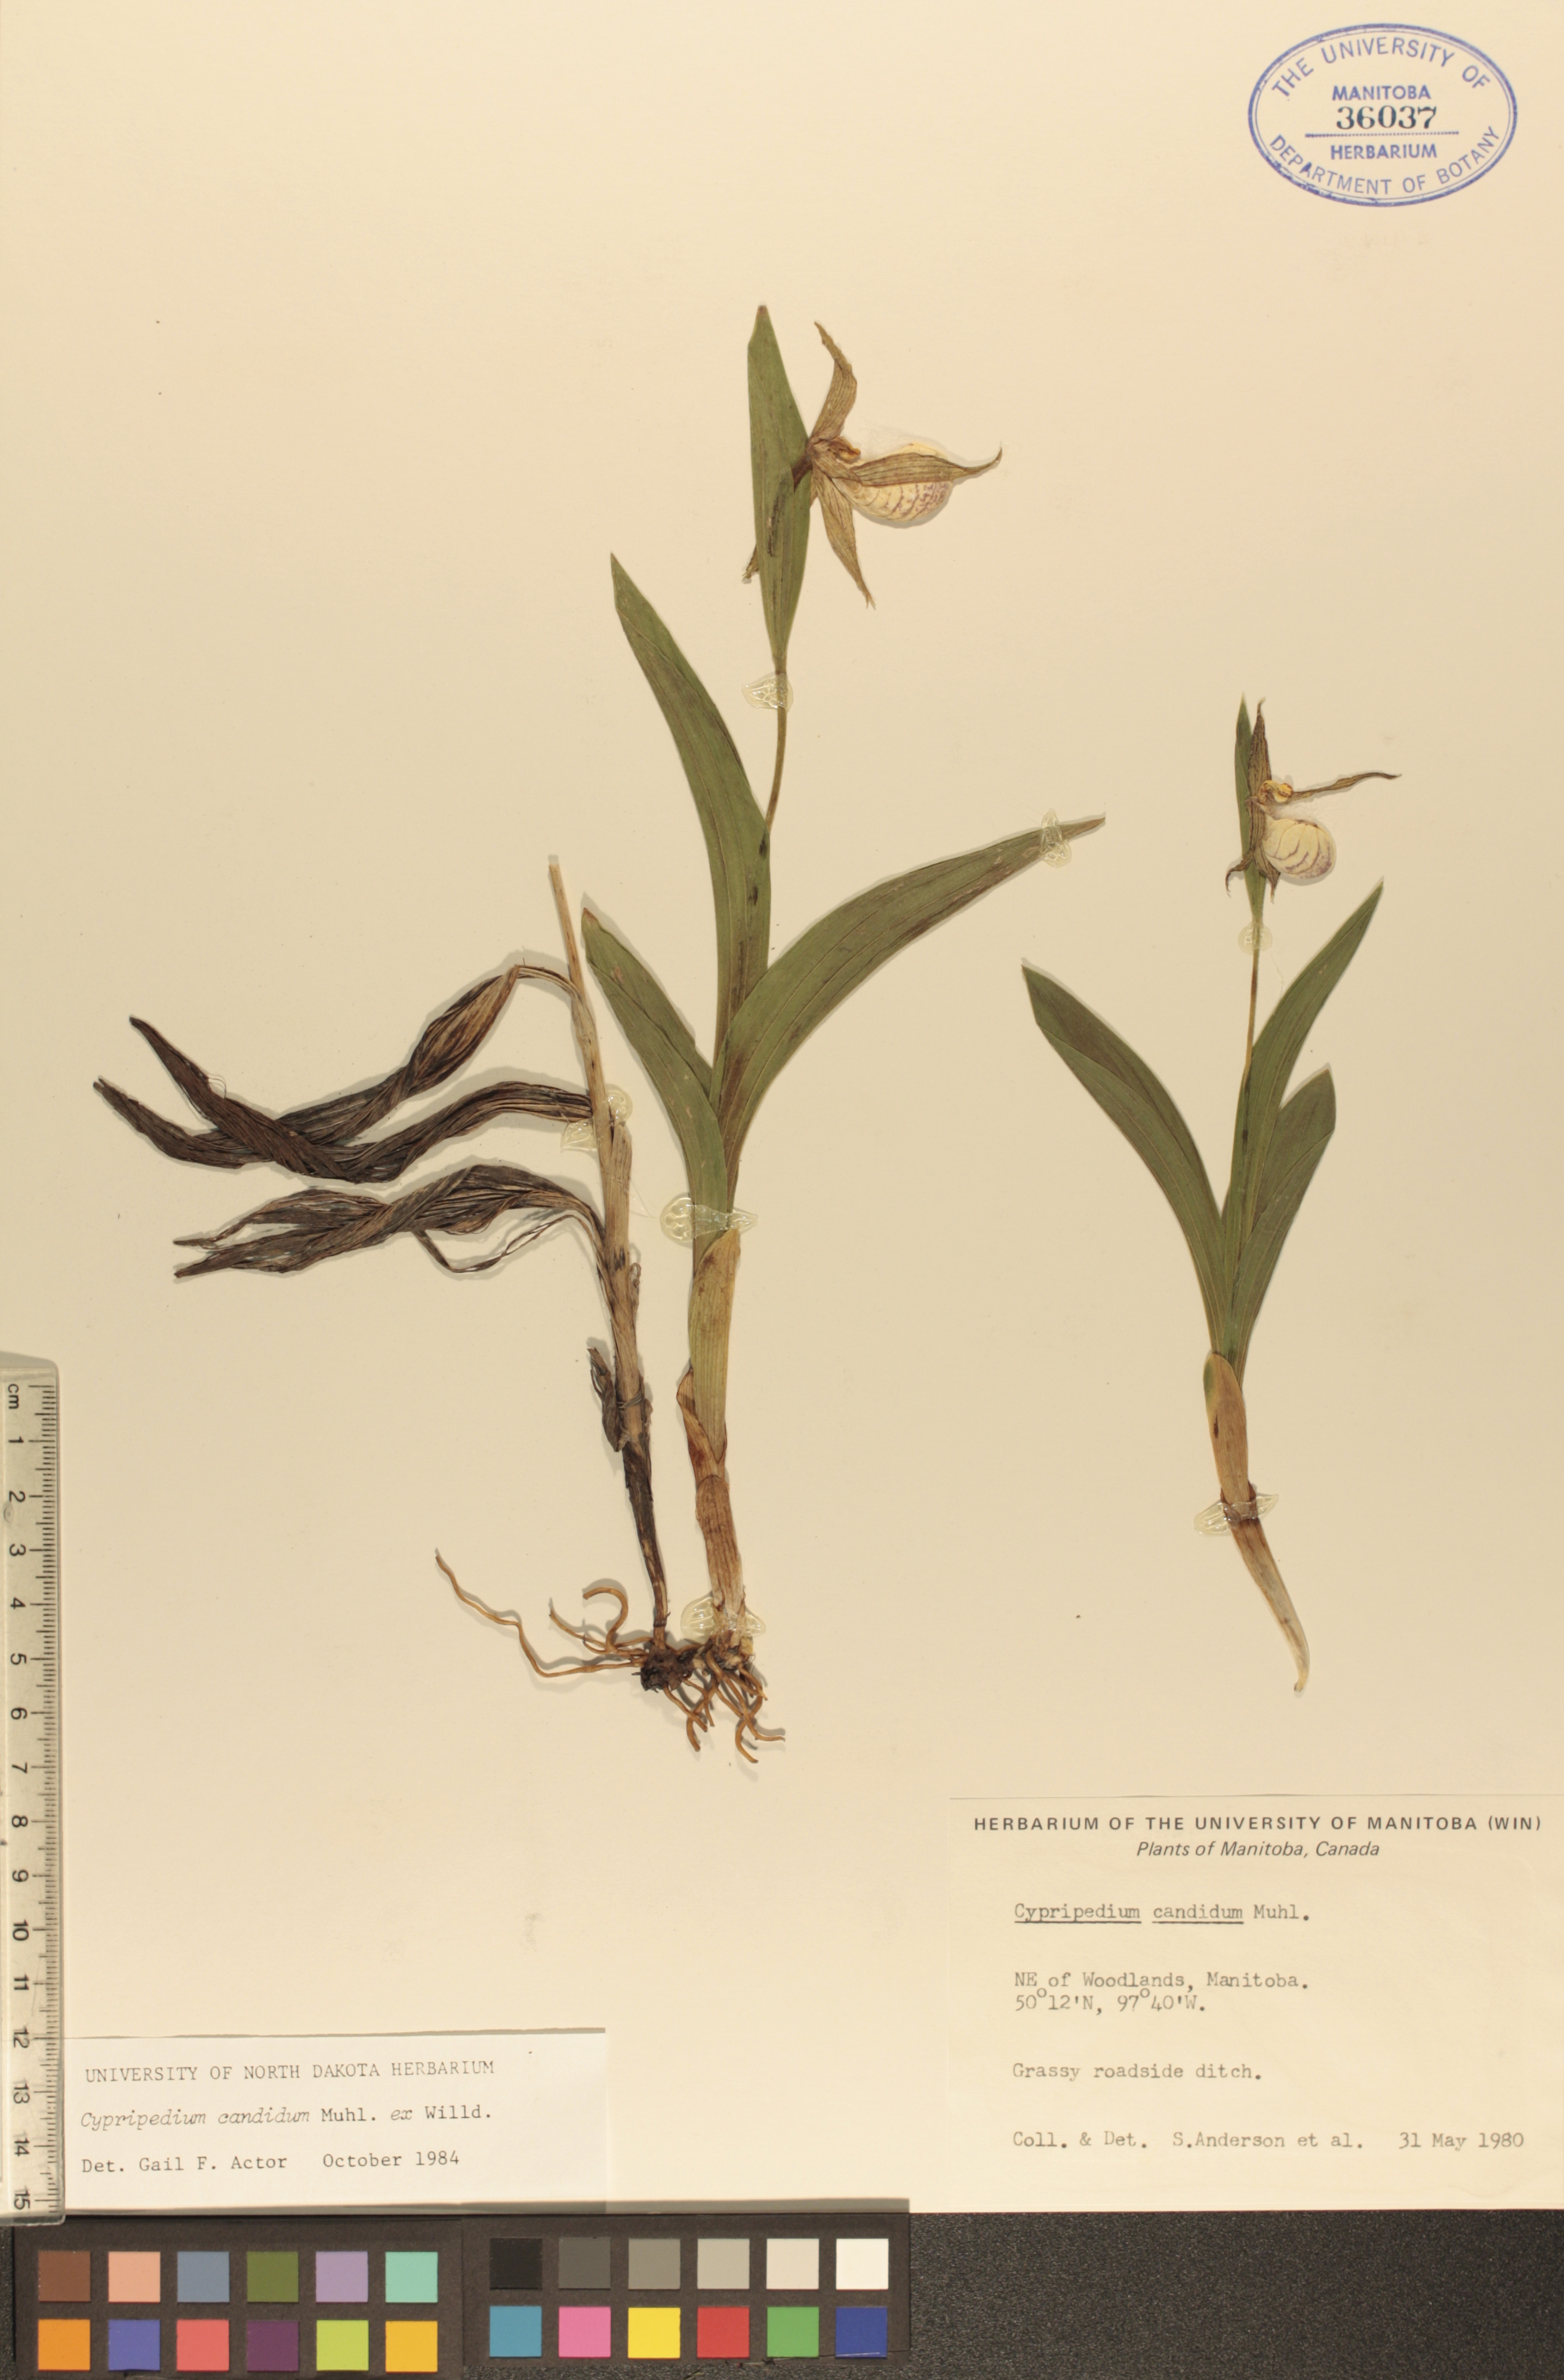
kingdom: Plantae
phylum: Tracheophyta
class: Liliopsida
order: Asparagales
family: Orchidaceae
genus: Cypripedium
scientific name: Cypripedium candidum
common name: White lady's-slipper
